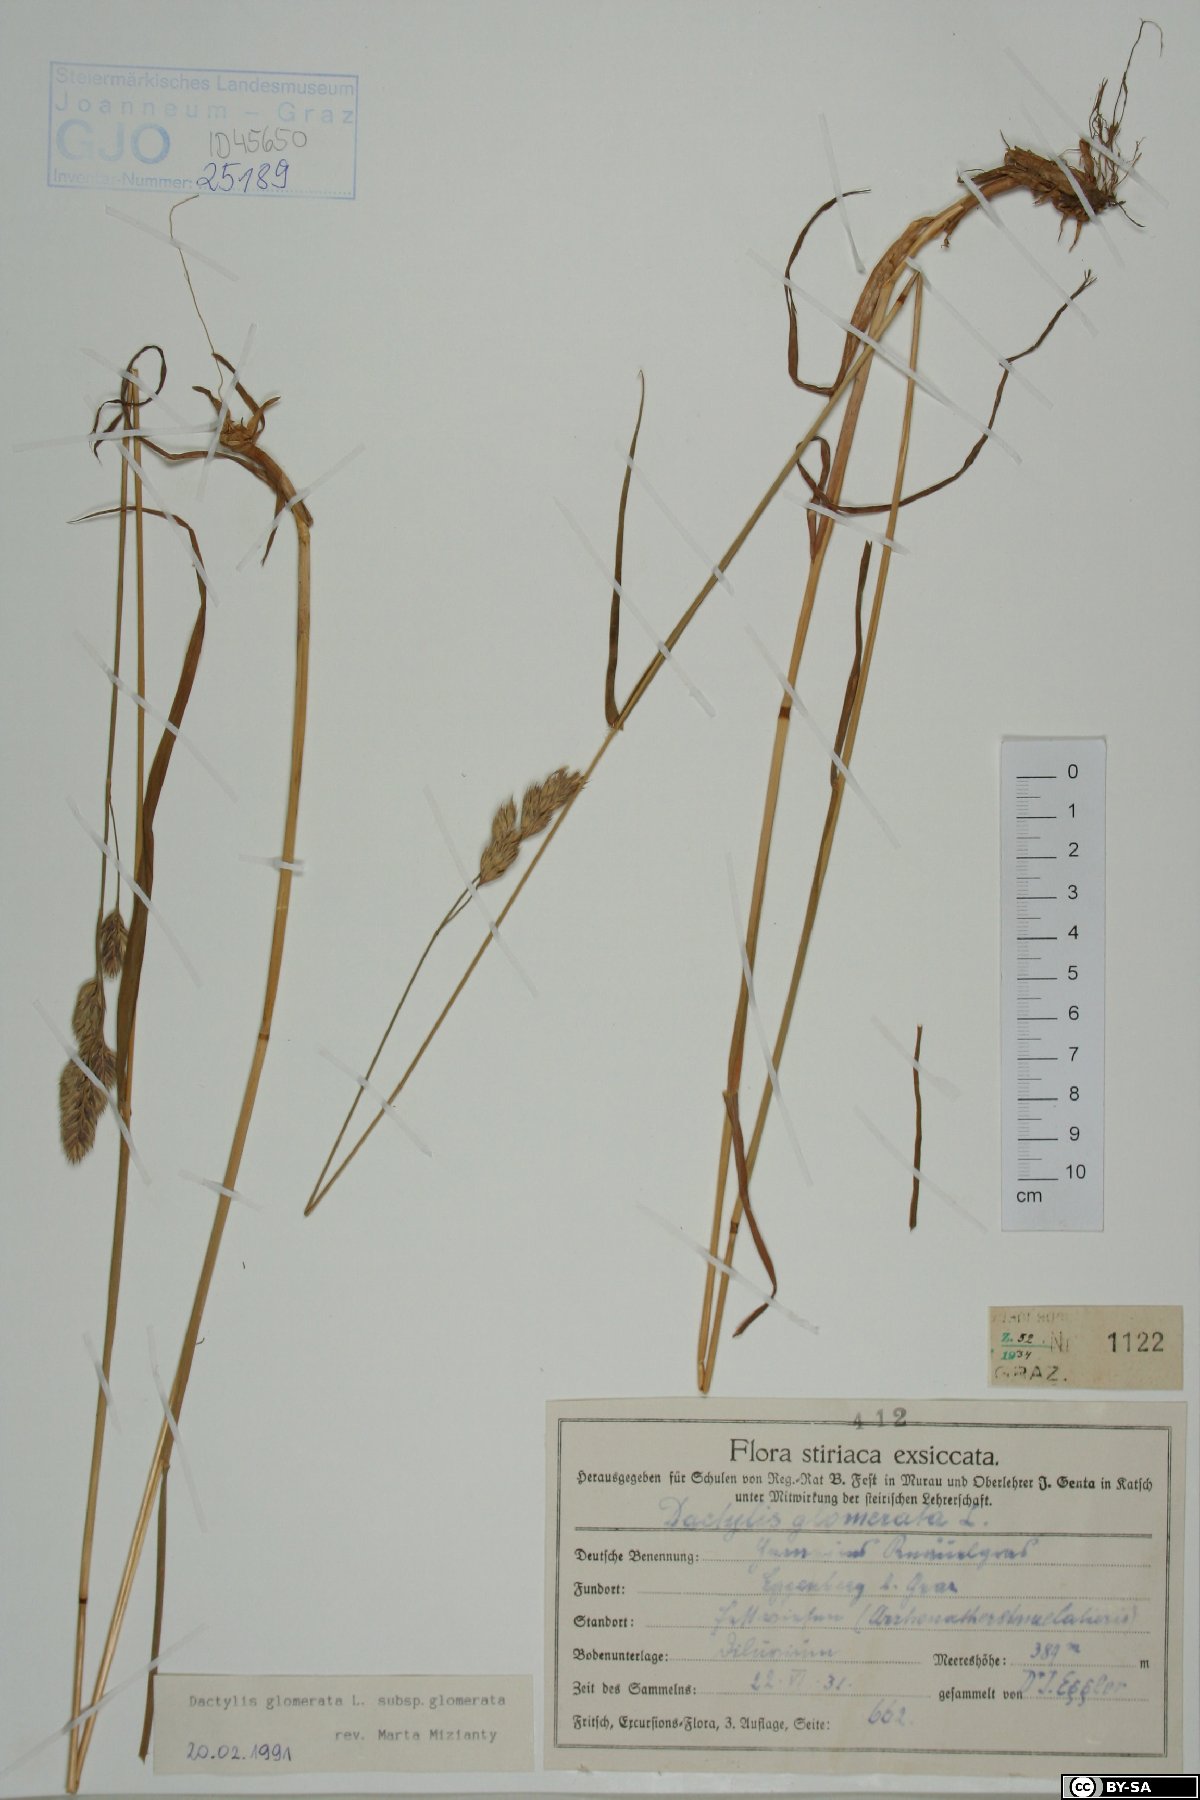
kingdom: Plantae
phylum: Tracheophyta
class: Liliopsida
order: Poales
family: Poaceae
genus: Dactylis
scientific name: Dactylis glomerata
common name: Orchardgrass
